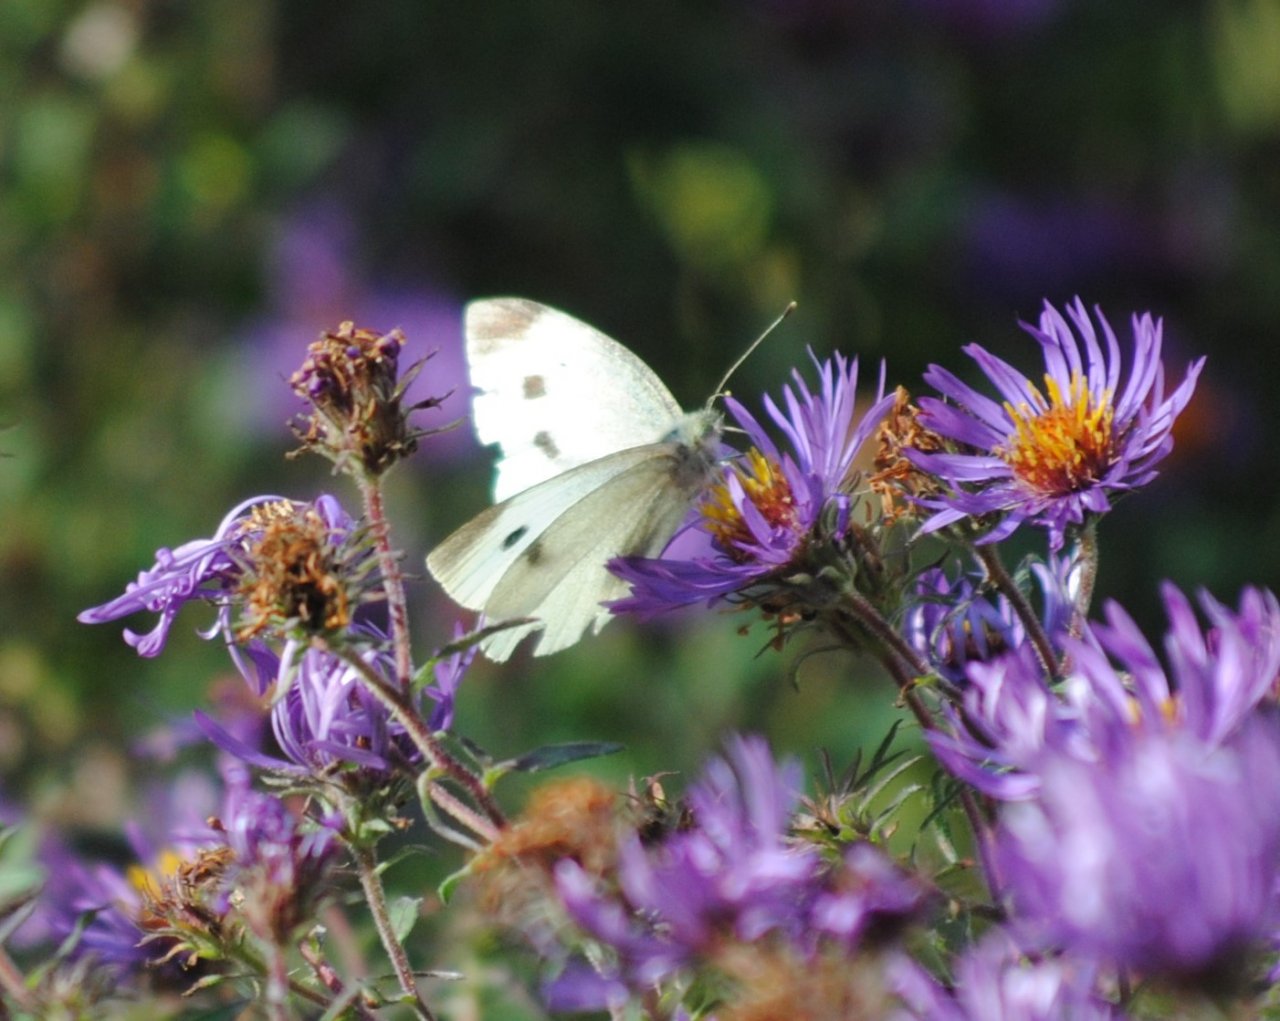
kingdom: Animalia
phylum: Arthropoda
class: Insecta
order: Lepidoptera
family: Pieridae
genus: Pieris
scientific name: Pieris rapae
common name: Cabbage White
